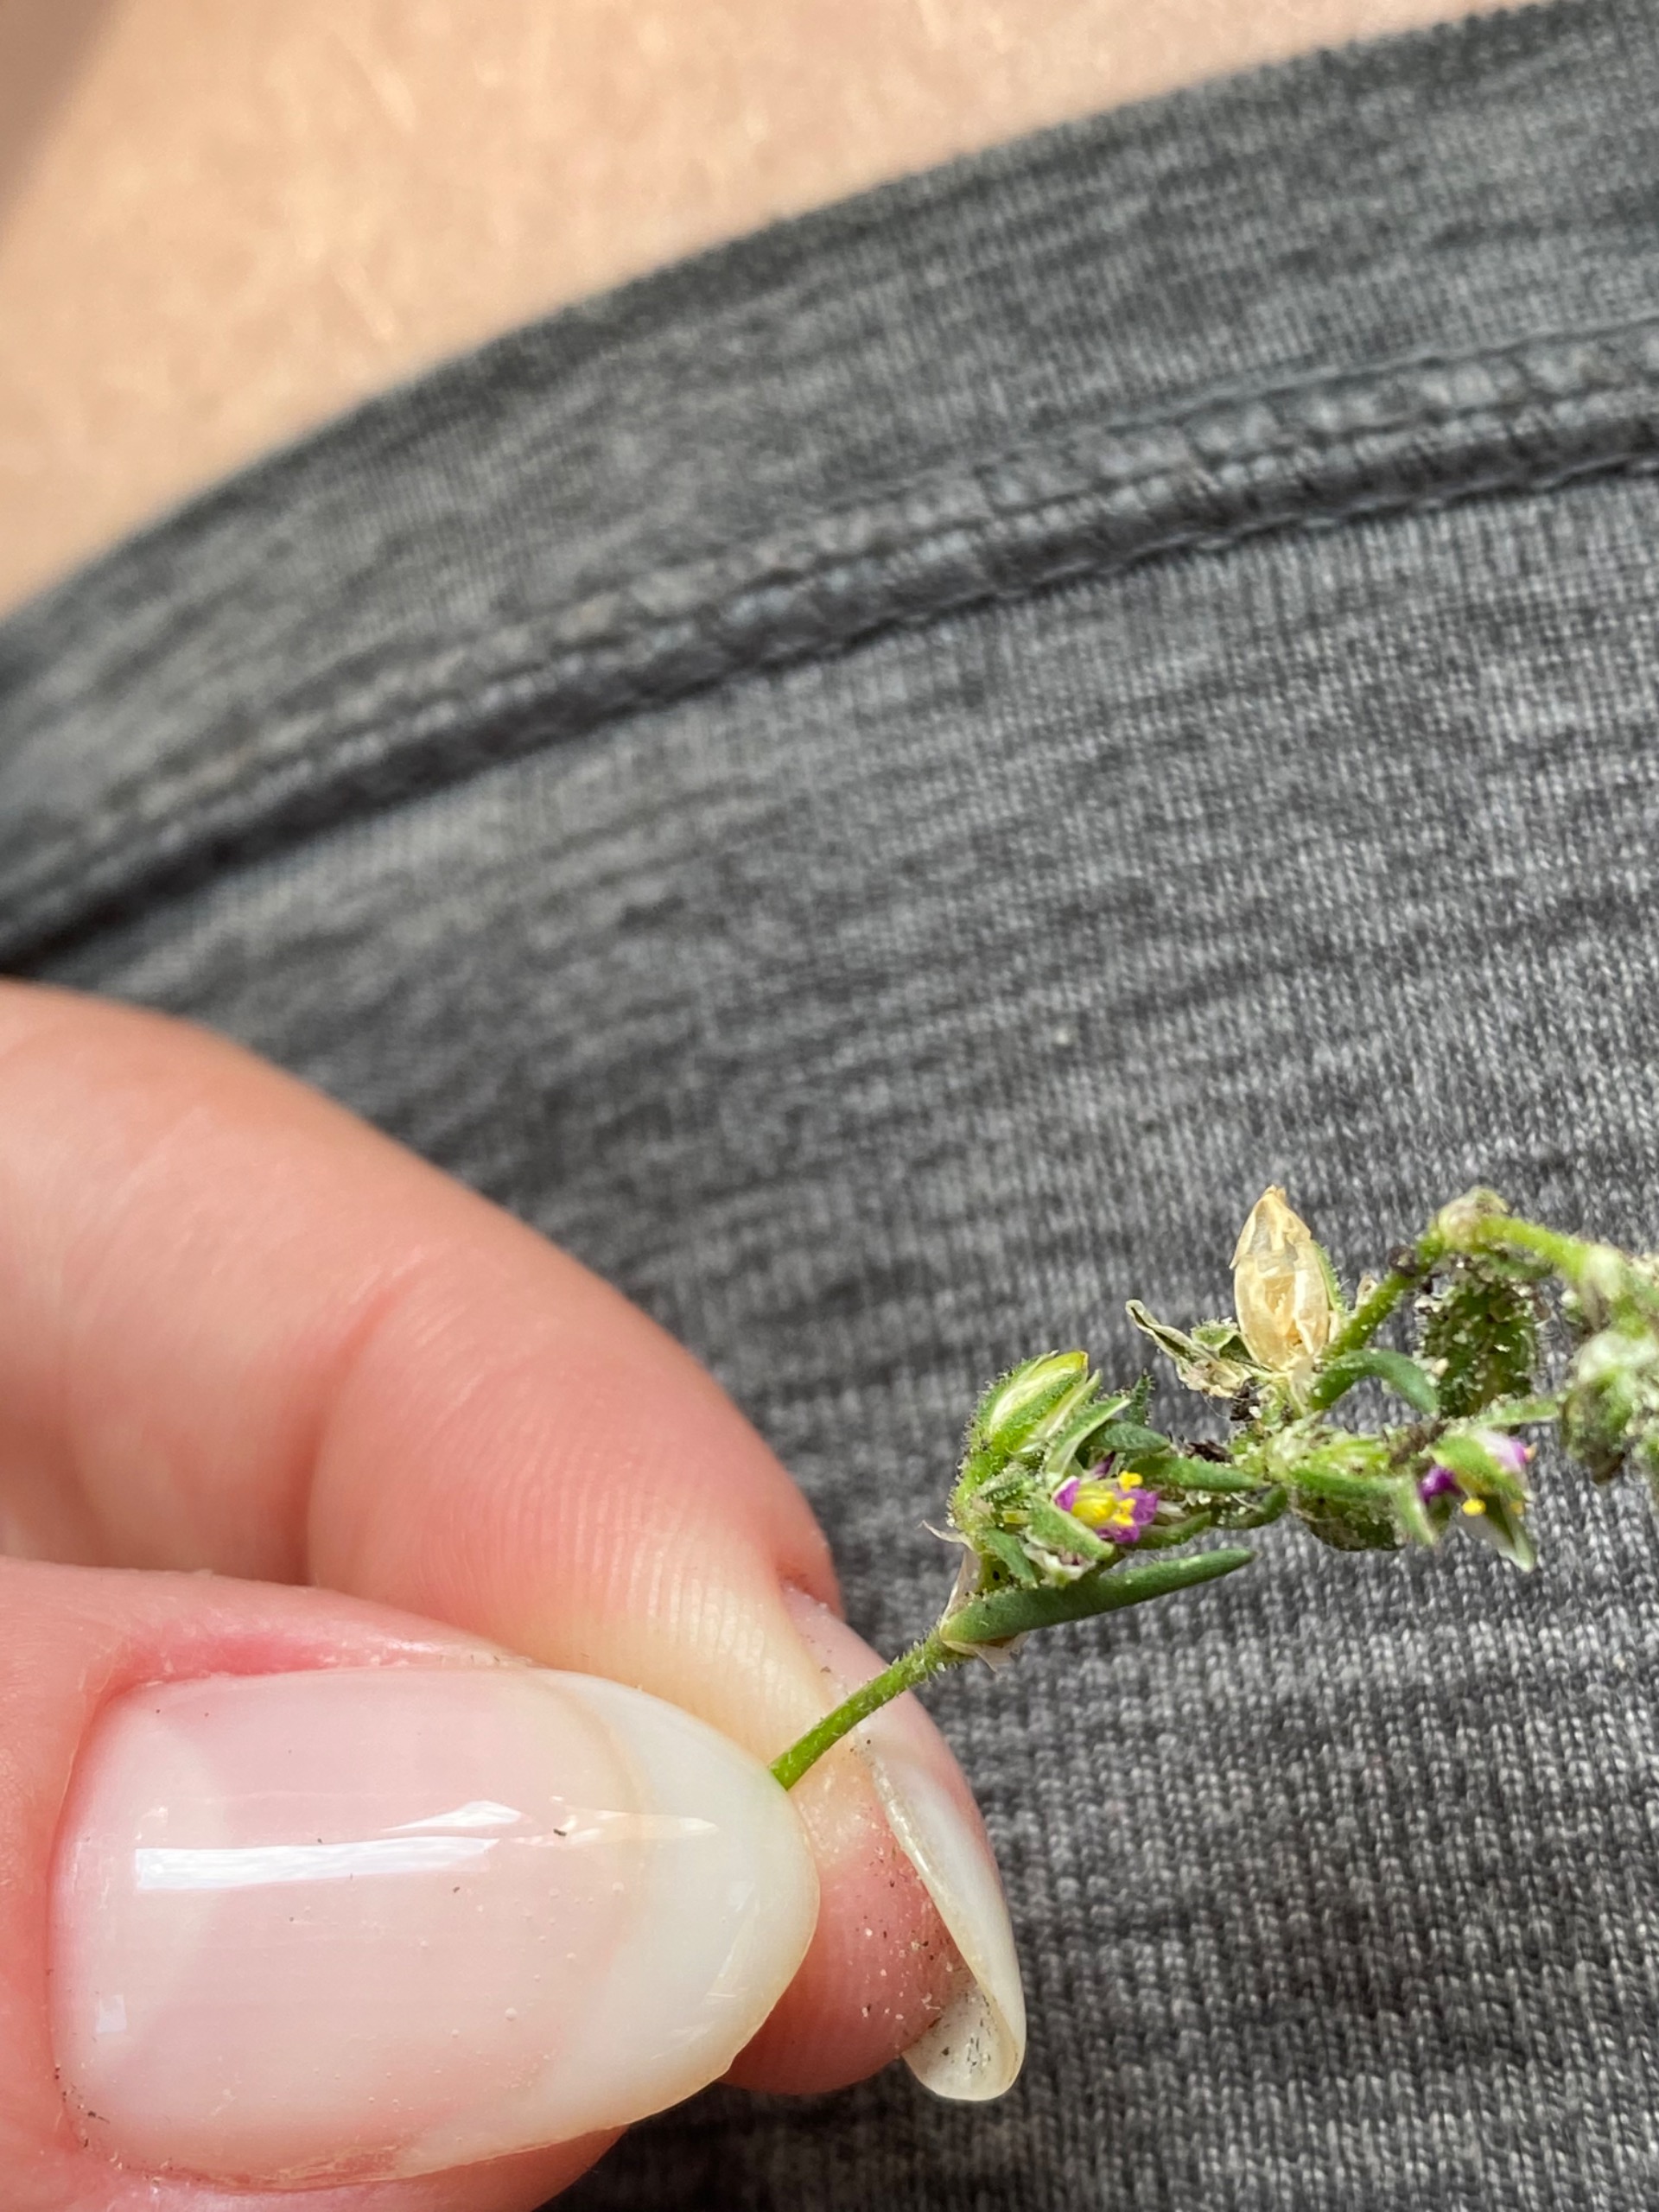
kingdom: Plantae
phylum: Tracheophyta
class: Magnoliopsida
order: Caryophyllales
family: Caryophyllaceae
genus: Spergularia
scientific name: Spergularia
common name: Hindeknæslægten
